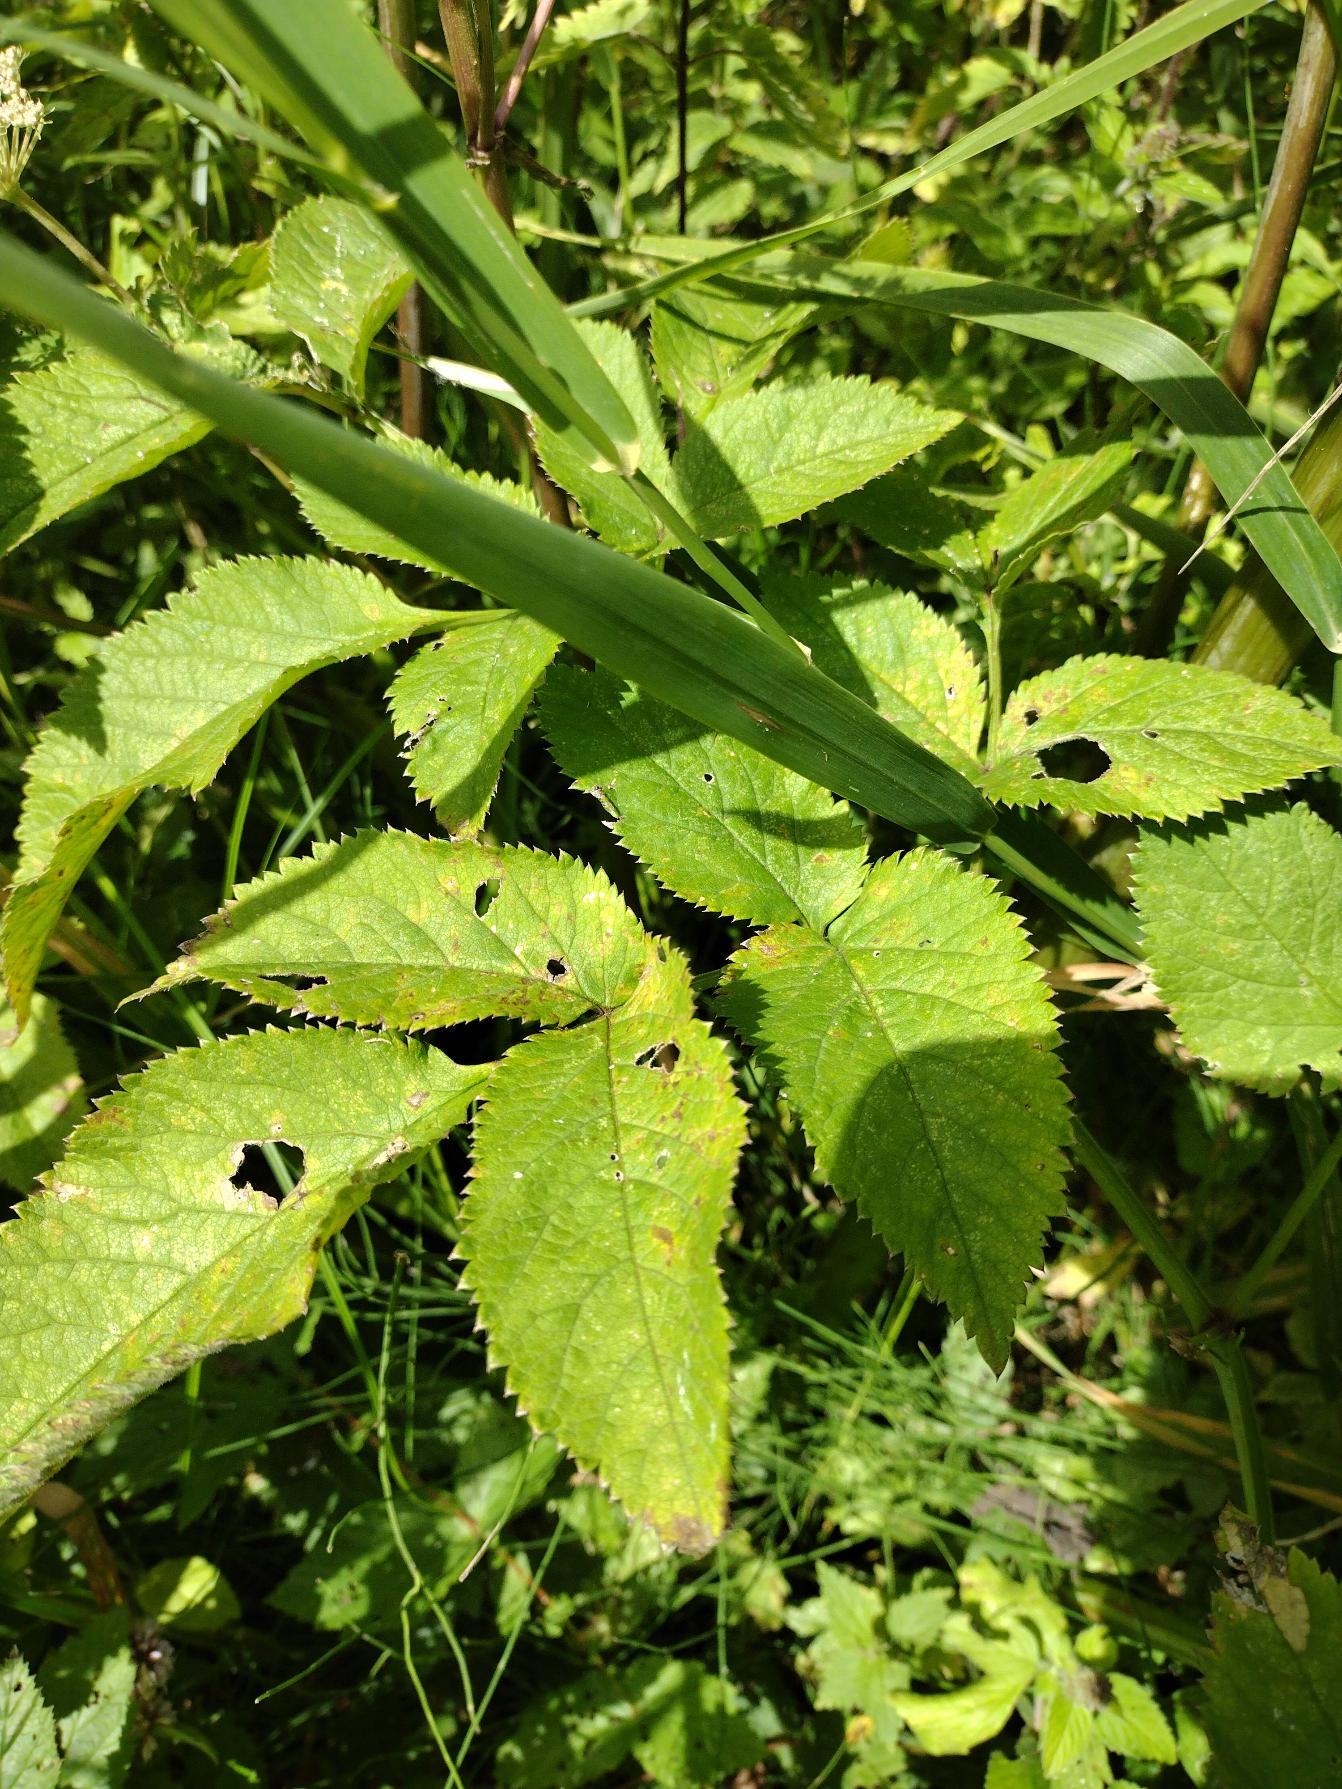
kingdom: Plantae
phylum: Tracheophyta
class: Magnoliopsida
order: Apiales
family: Apiaceae
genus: Angelica
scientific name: Angelica sylvestris
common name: Angelik
